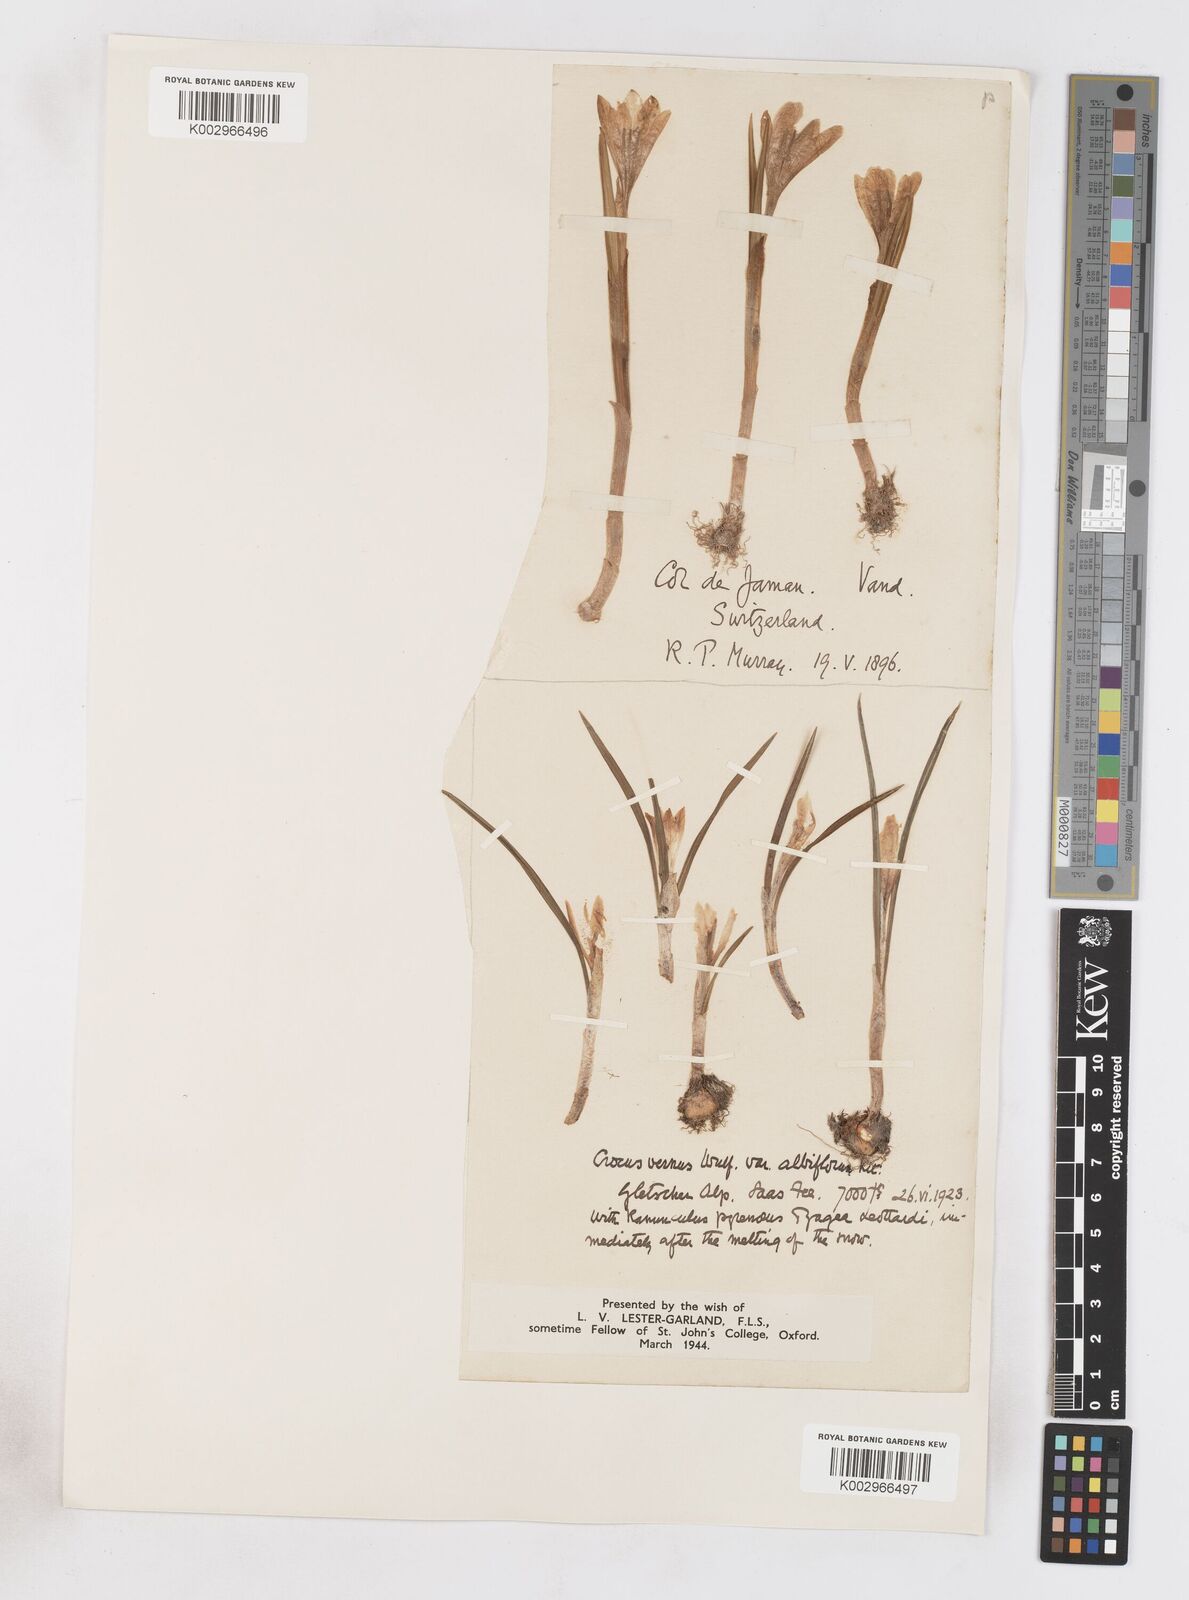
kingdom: Plantae
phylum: Tracheophyta
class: Liliopsida
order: Asparagales
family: Iridaceae
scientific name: Iridaceae
